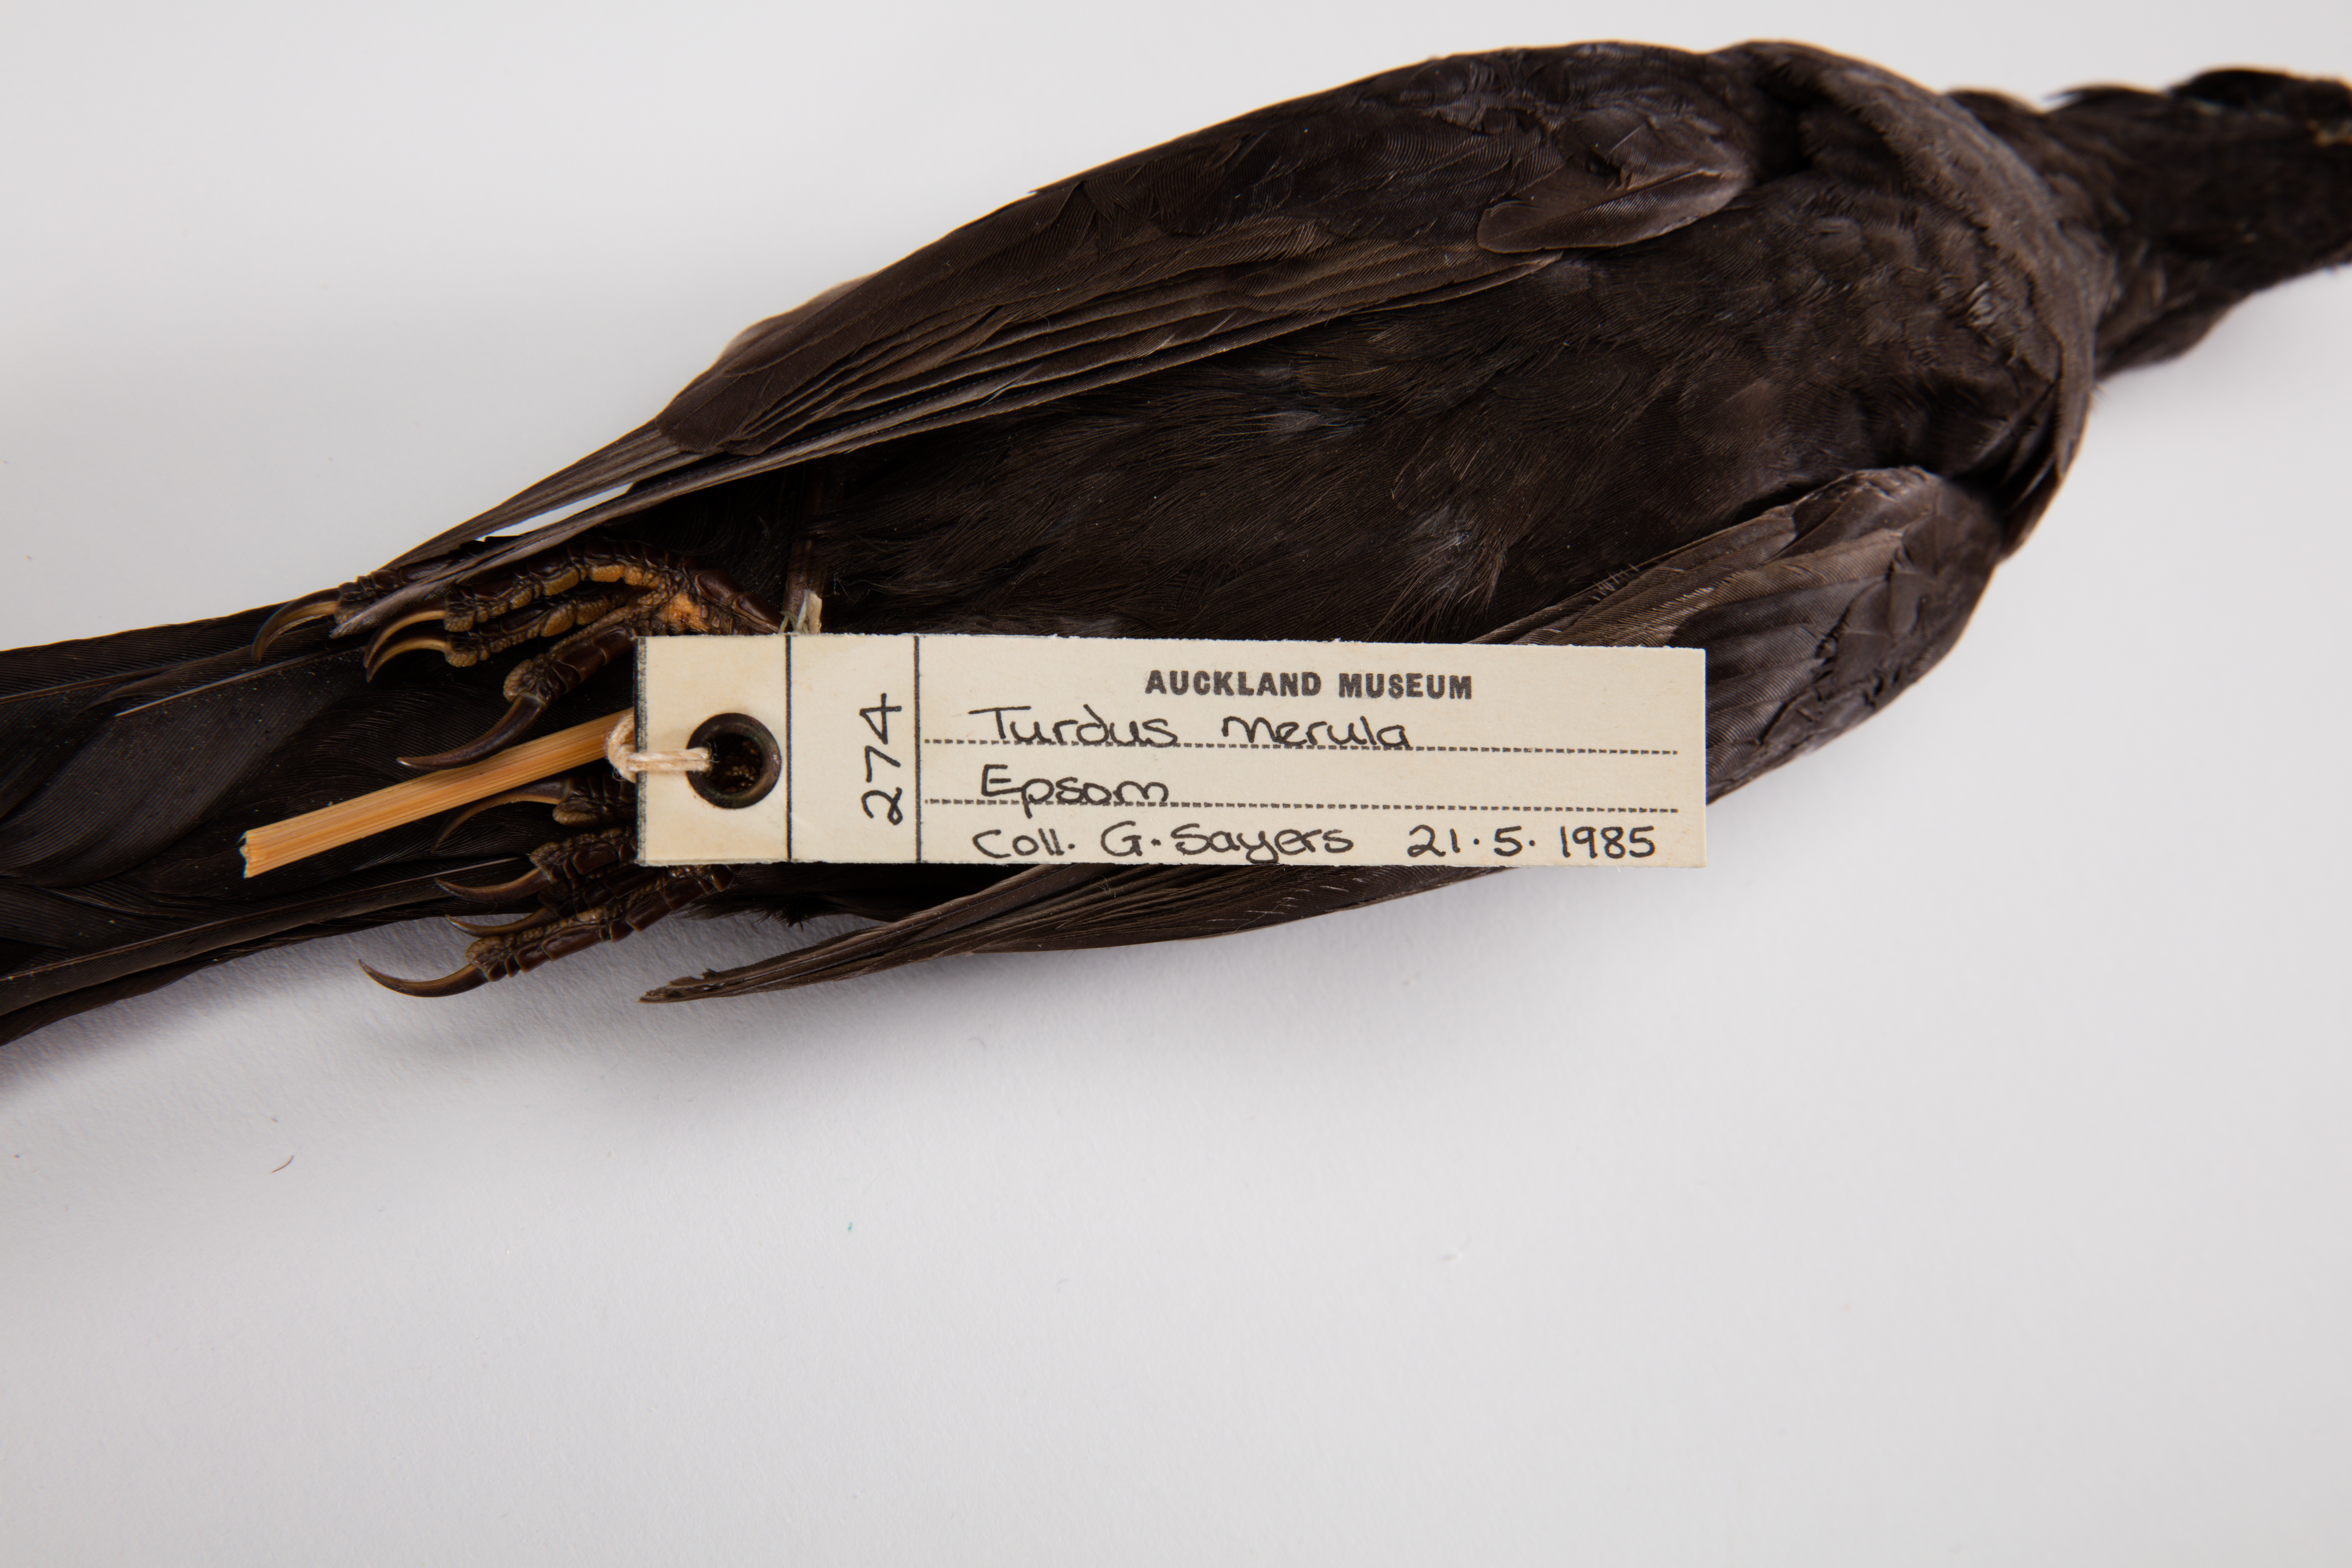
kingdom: Animalia
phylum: Chordata
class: Aves
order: Passeriformes
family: Turdidae
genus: Turdus
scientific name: Turdus merula
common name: Common blackbird
